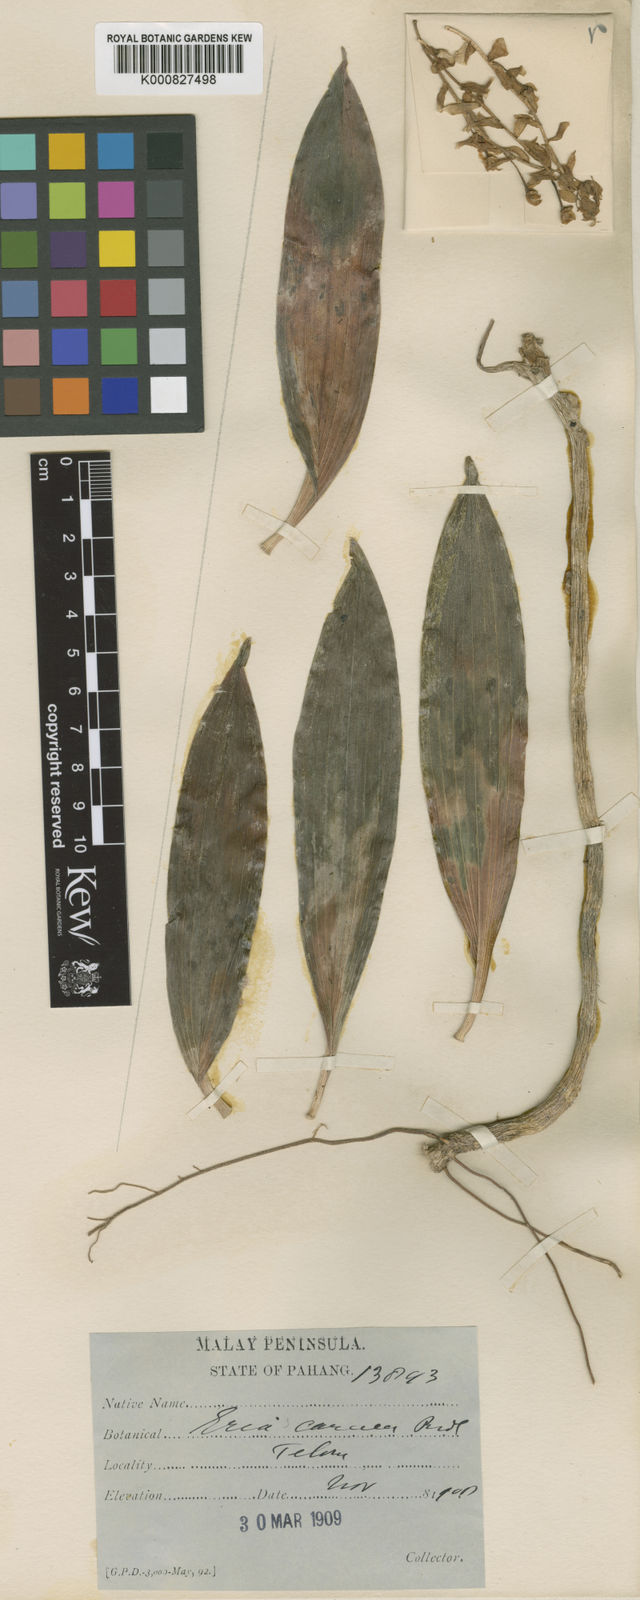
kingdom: Plantae
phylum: Tracheophyta
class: Liliopsida
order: Asparagales
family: Orchidaceae
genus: Pinalia
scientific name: Pinalia lamonganensis
